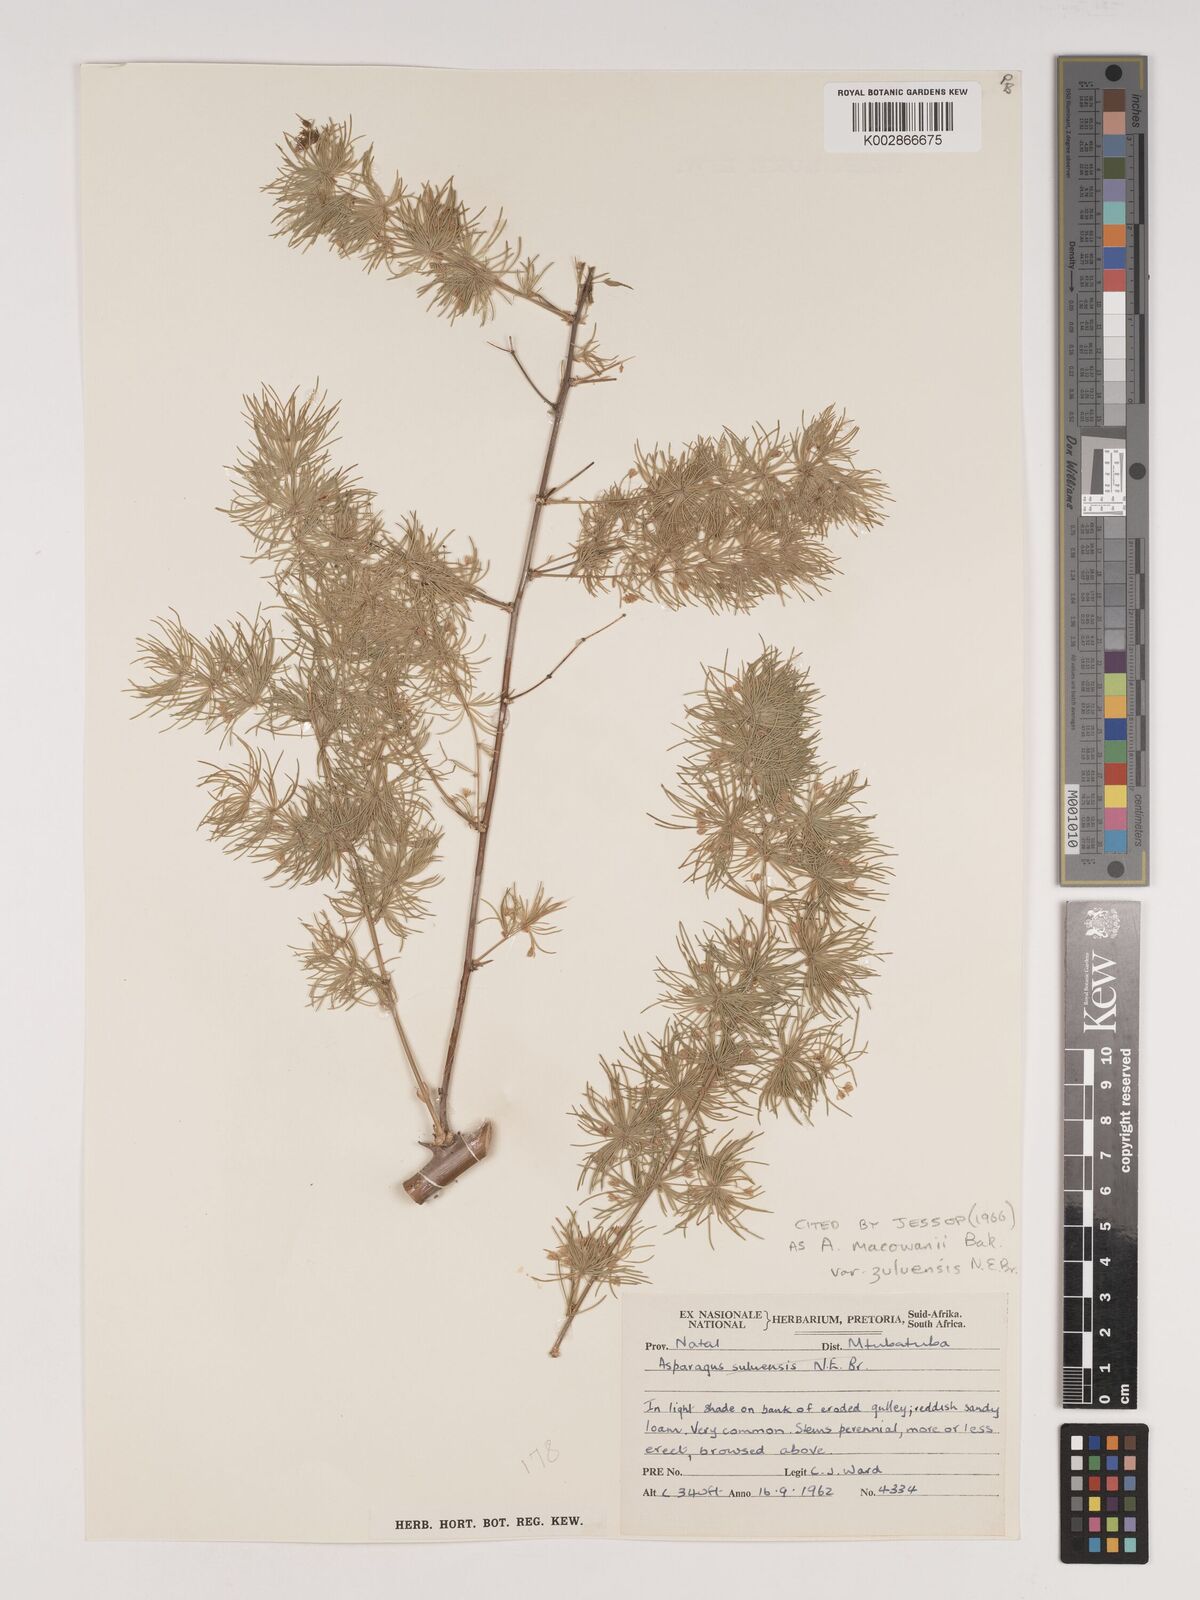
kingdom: Plantae
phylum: Tracheophyta
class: Liliopsida
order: Asparagales
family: Asparagaceae
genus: Asparagus
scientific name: Asparagus
